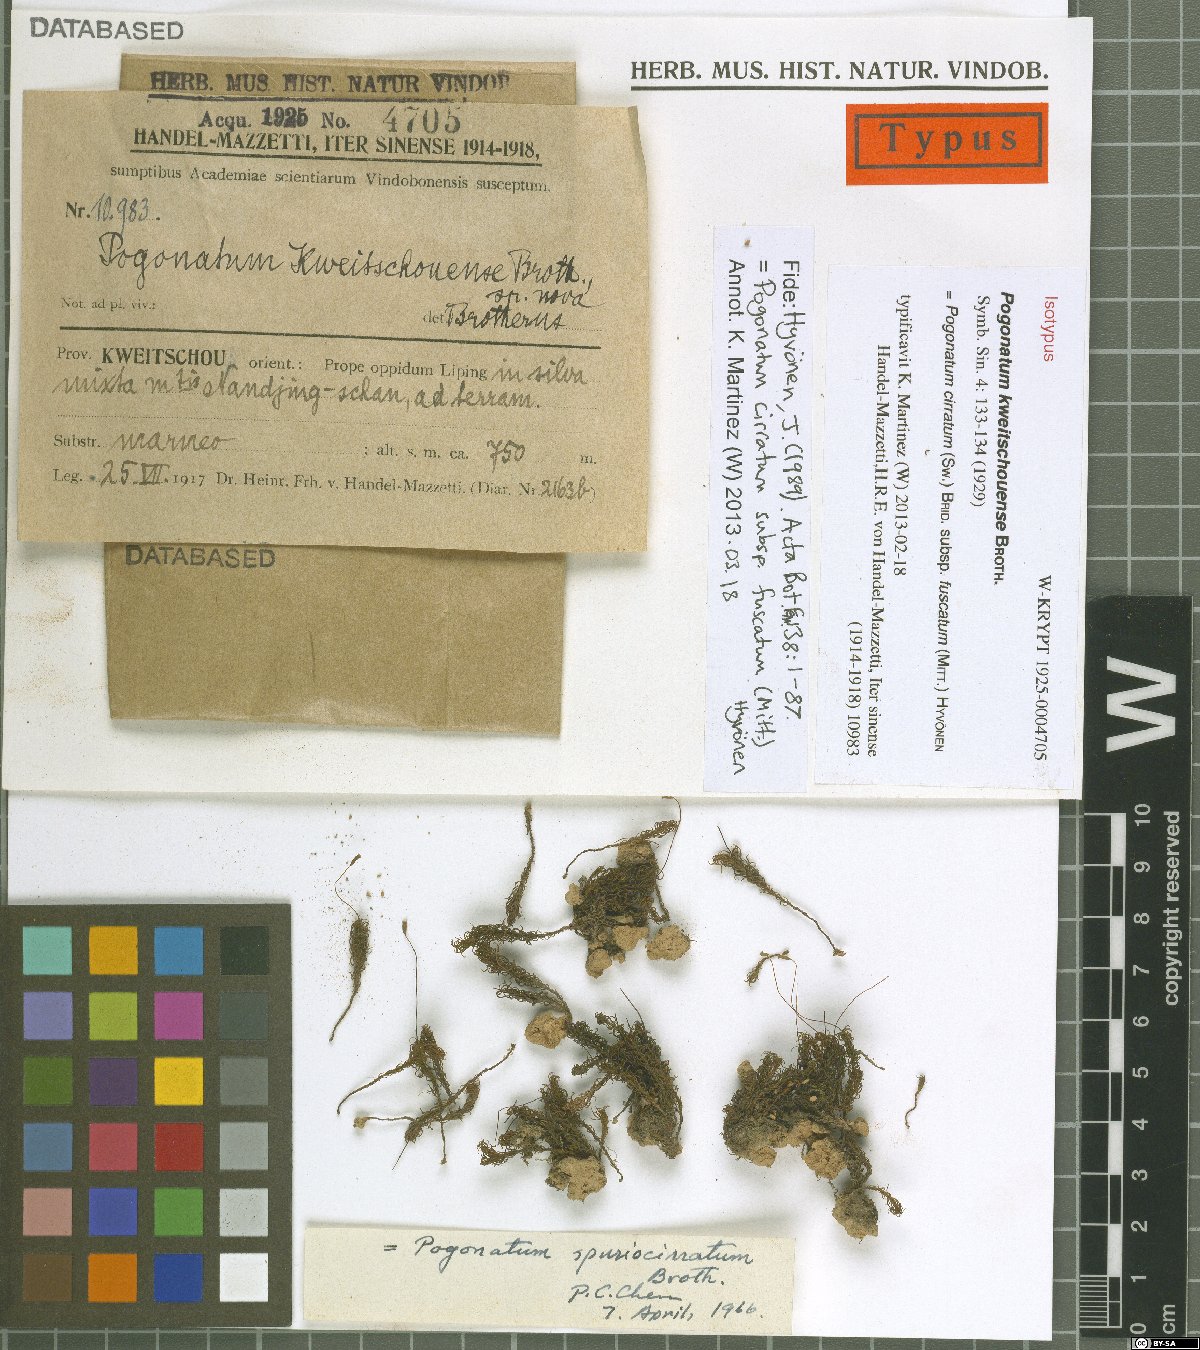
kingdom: Plantae
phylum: Bryophyta
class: Polytrichopsida
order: Polytrichales
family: Polytrichaceae
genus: Pogonatum
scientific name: Pogonatum cirratum
